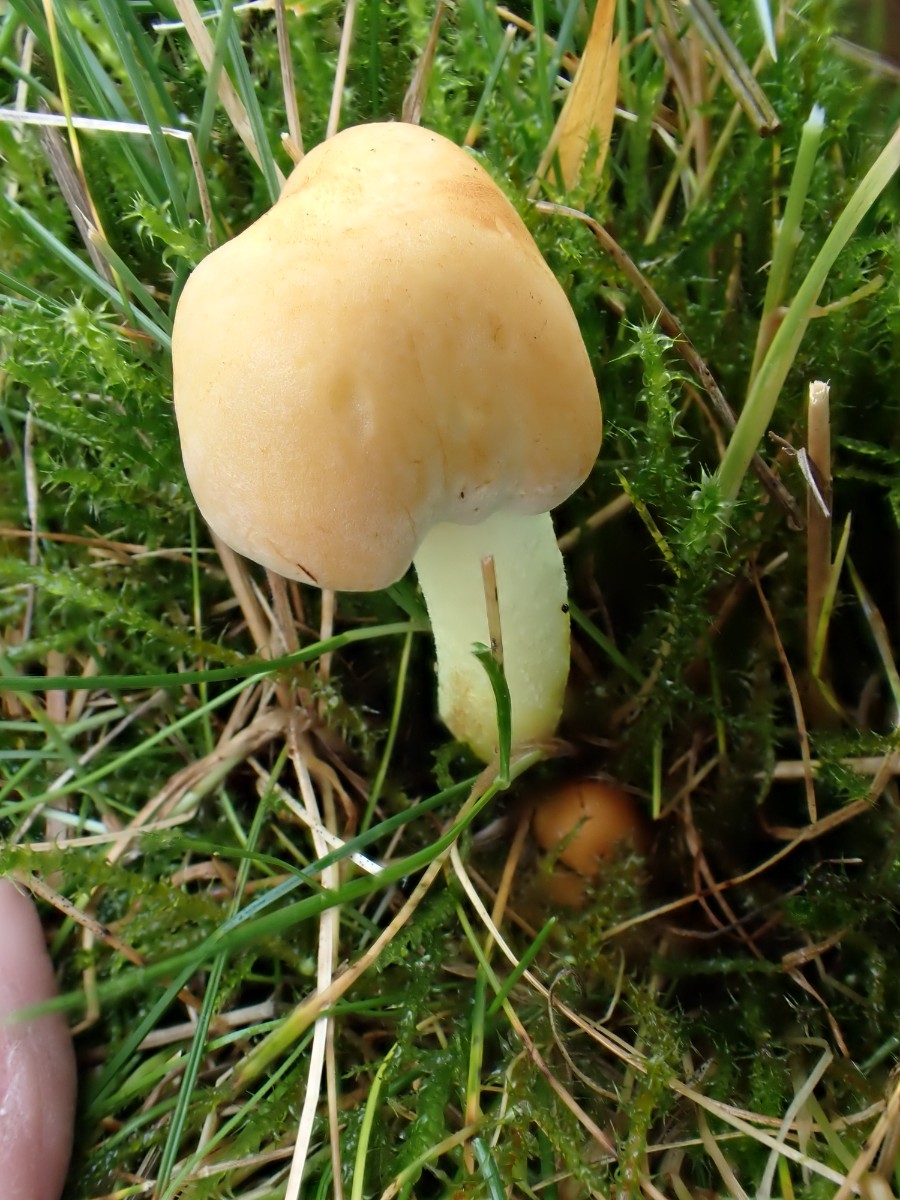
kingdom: Fungi
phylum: Basidiomycota
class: Agaricomycetes
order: Agaricales
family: Strophariaceae
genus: Hypholoma
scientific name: Hypholoma fasciculare
